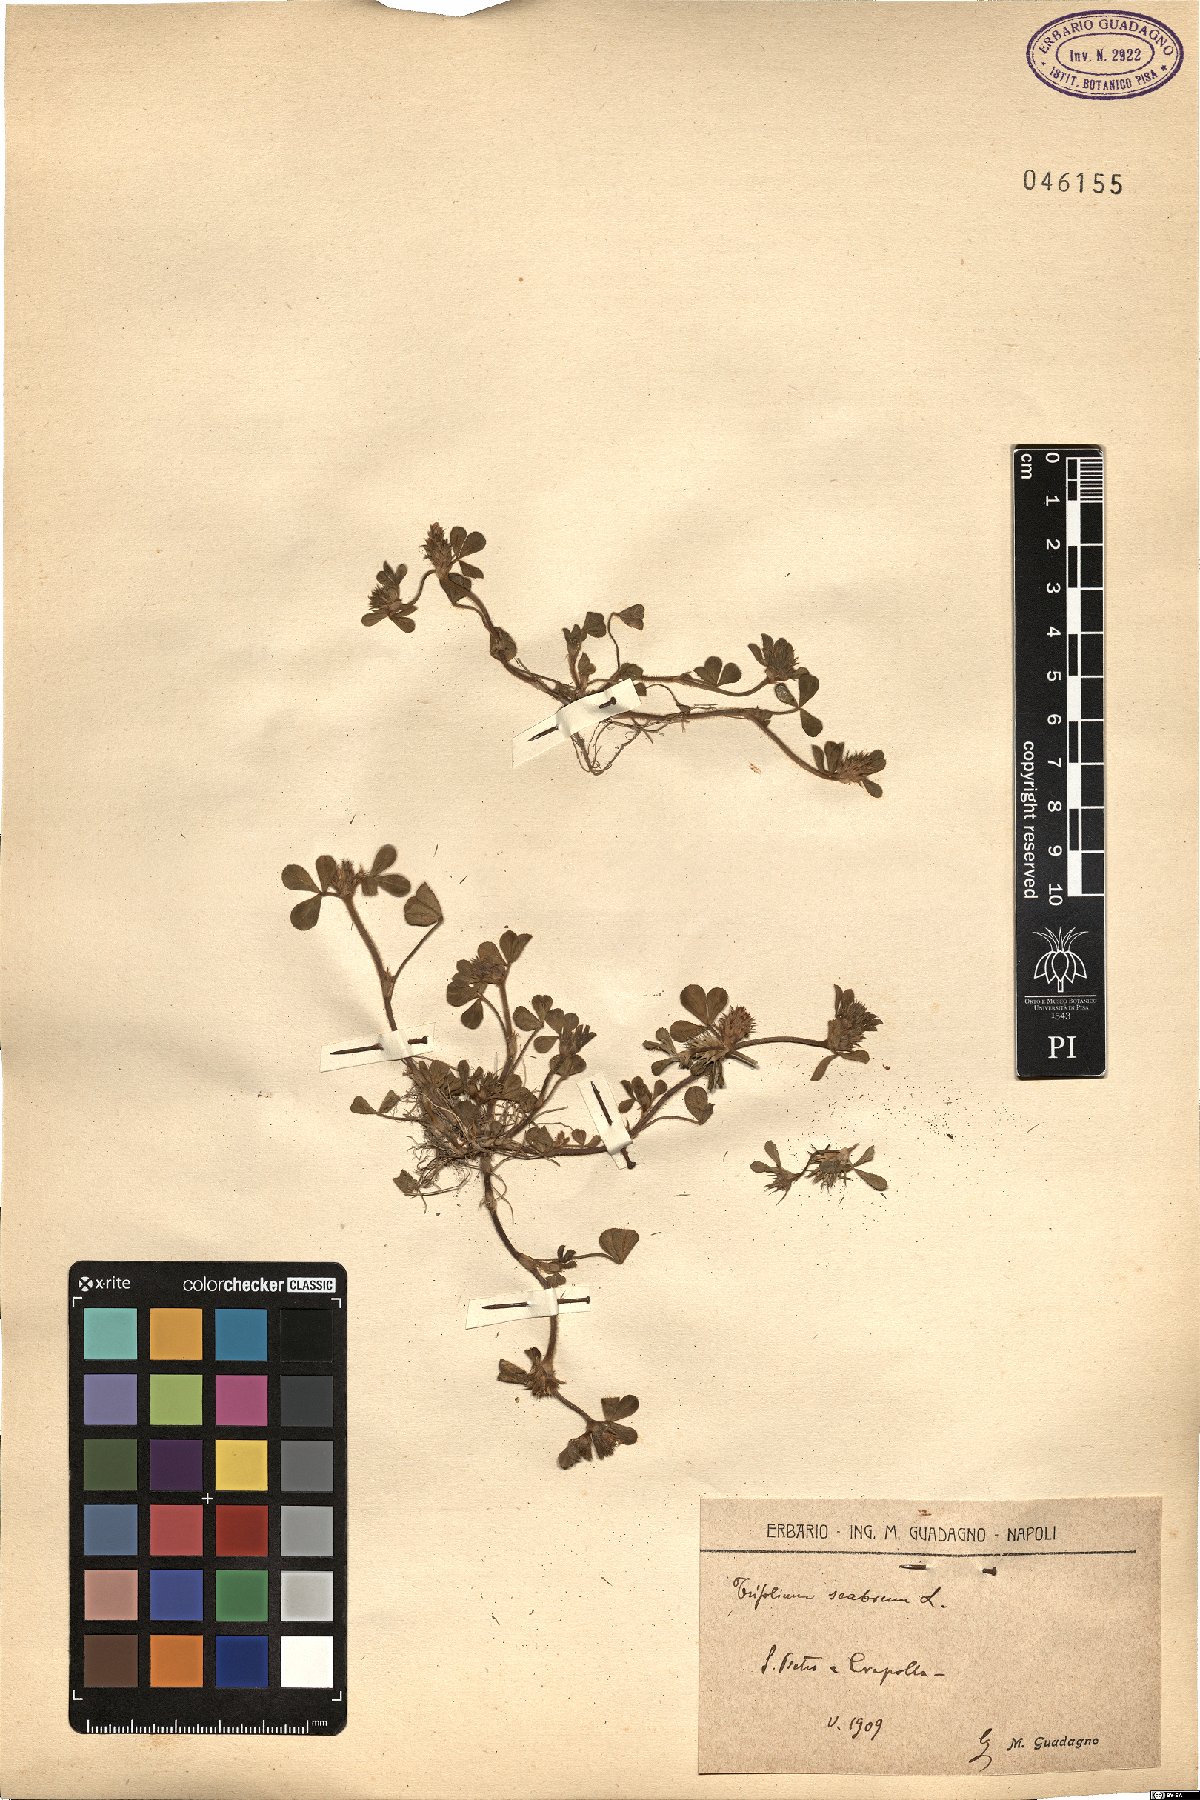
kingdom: Plantae
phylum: Tracheophyta
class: Magnoliopsida
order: Fabales
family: Fabaceae
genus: Trifolium
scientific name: Trifolium scabrum
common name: Rough clover
